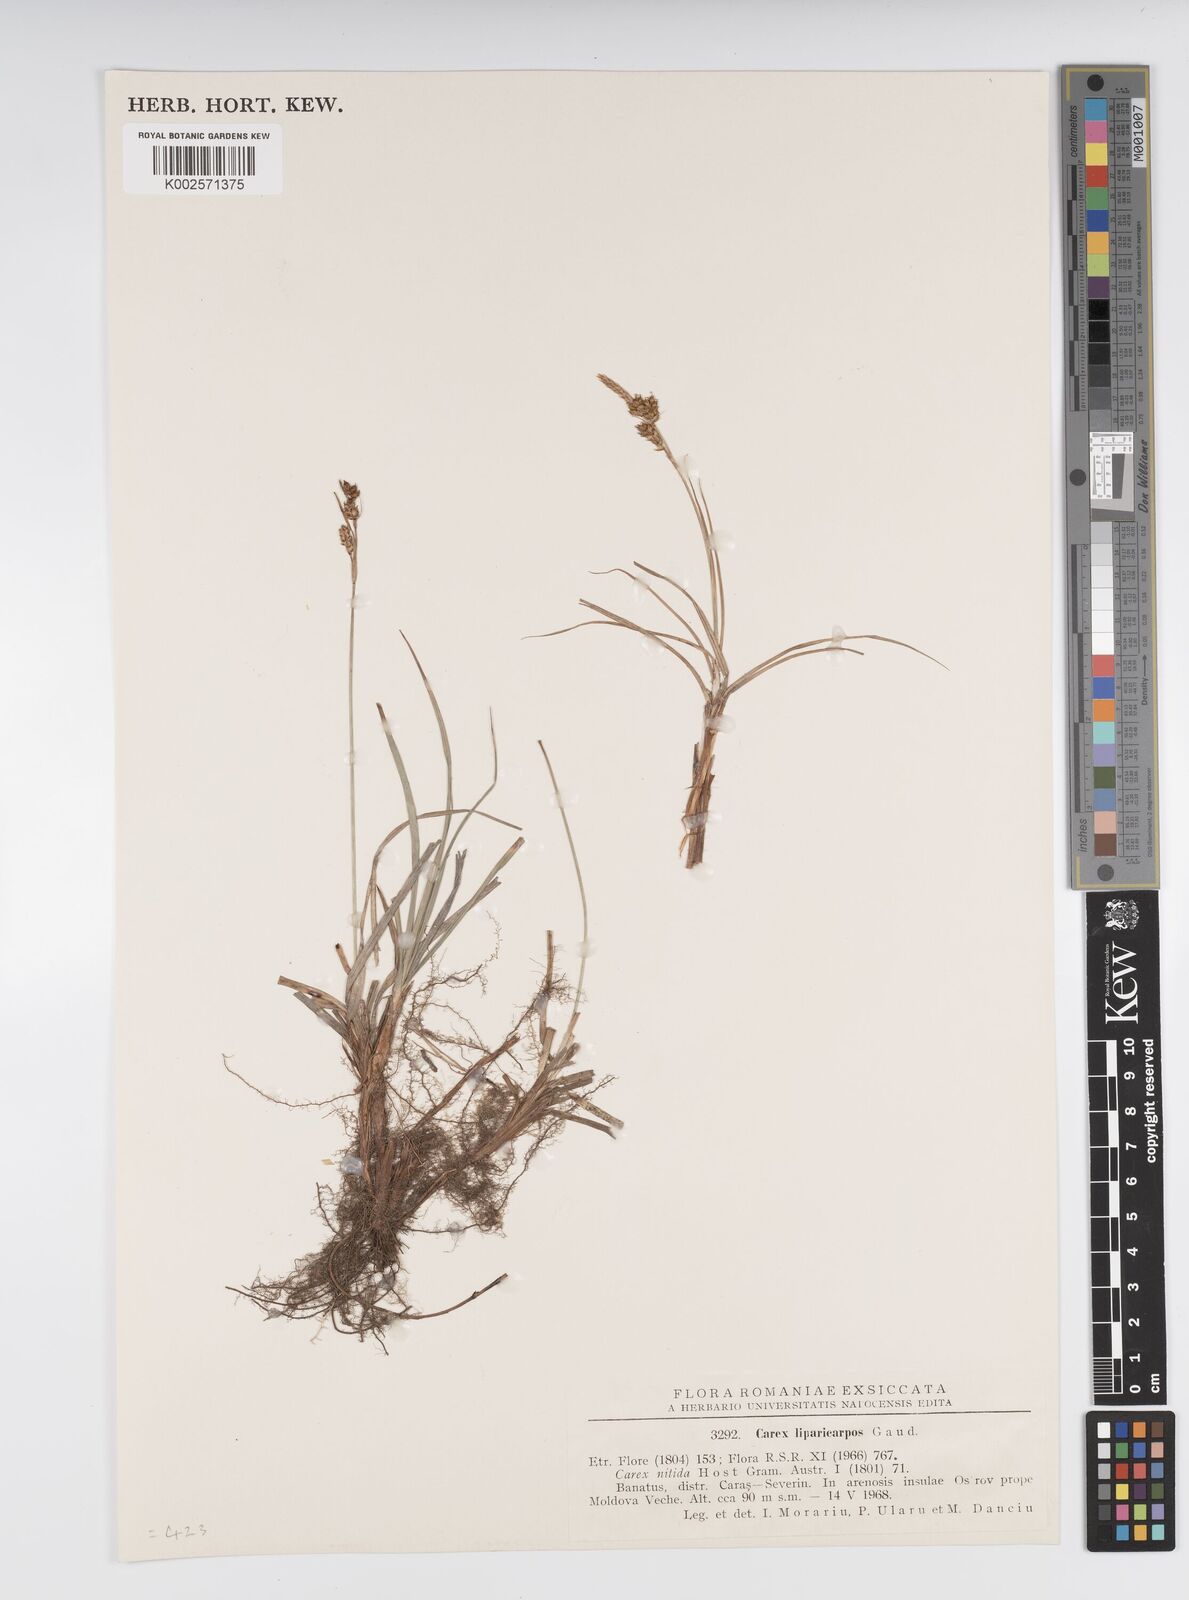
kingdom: Plantae
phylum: Tracheophyta
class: Liliopsida
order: Poales
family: Cyperaceae
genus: Carex
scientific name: Carex liparocarpos
